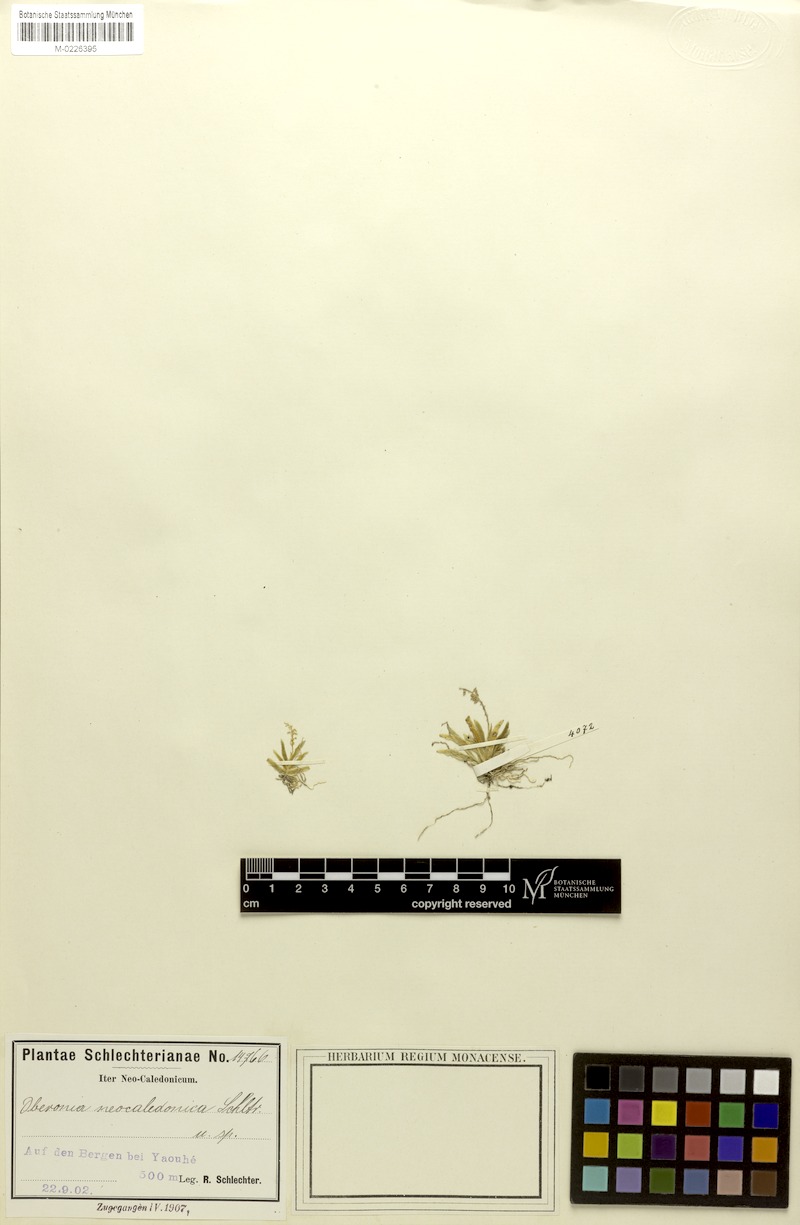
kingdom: Plantae
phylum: Tracheophyta
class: Liliopsida
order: Asparagales
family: Orchidaceae
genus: Oberonia
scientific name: Oberonia titania
